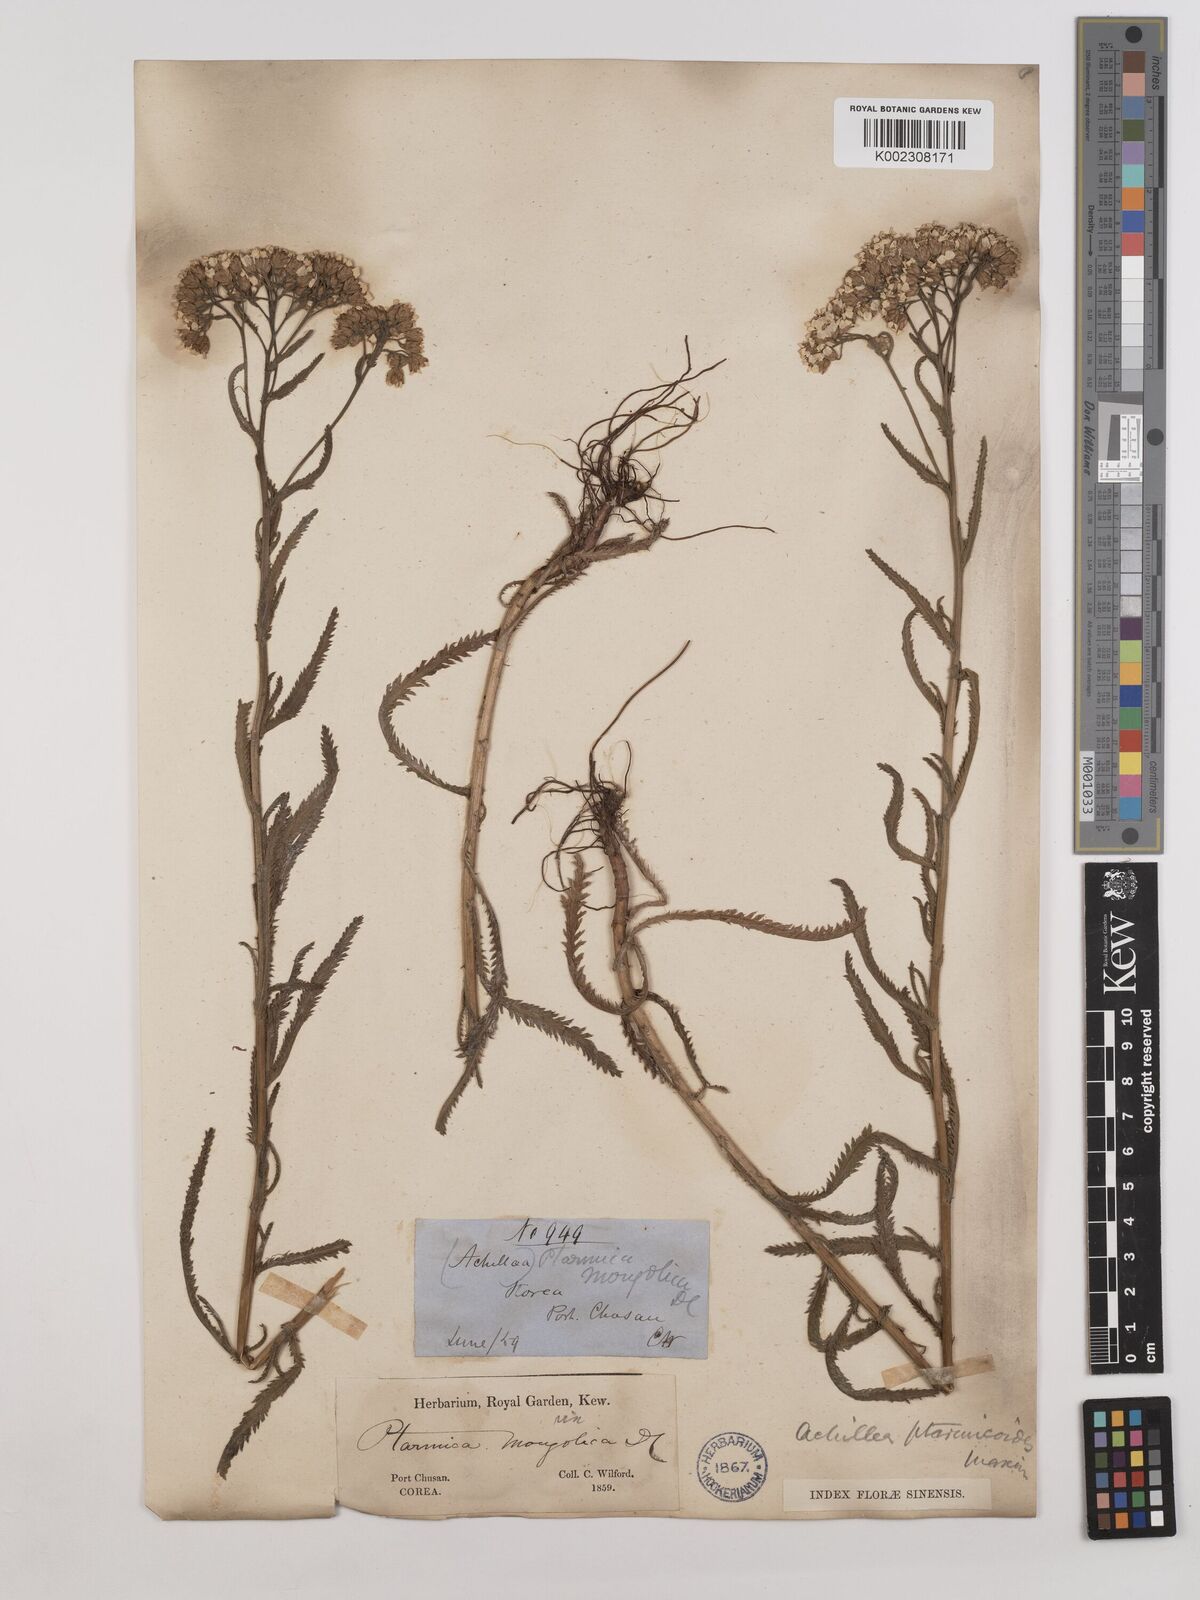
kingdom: Plantae
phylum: Tracheophyta
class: Magnoliopsida
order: Asterales
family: Asteraceae
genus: Achillea
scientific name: Achillea ptarmicoides
